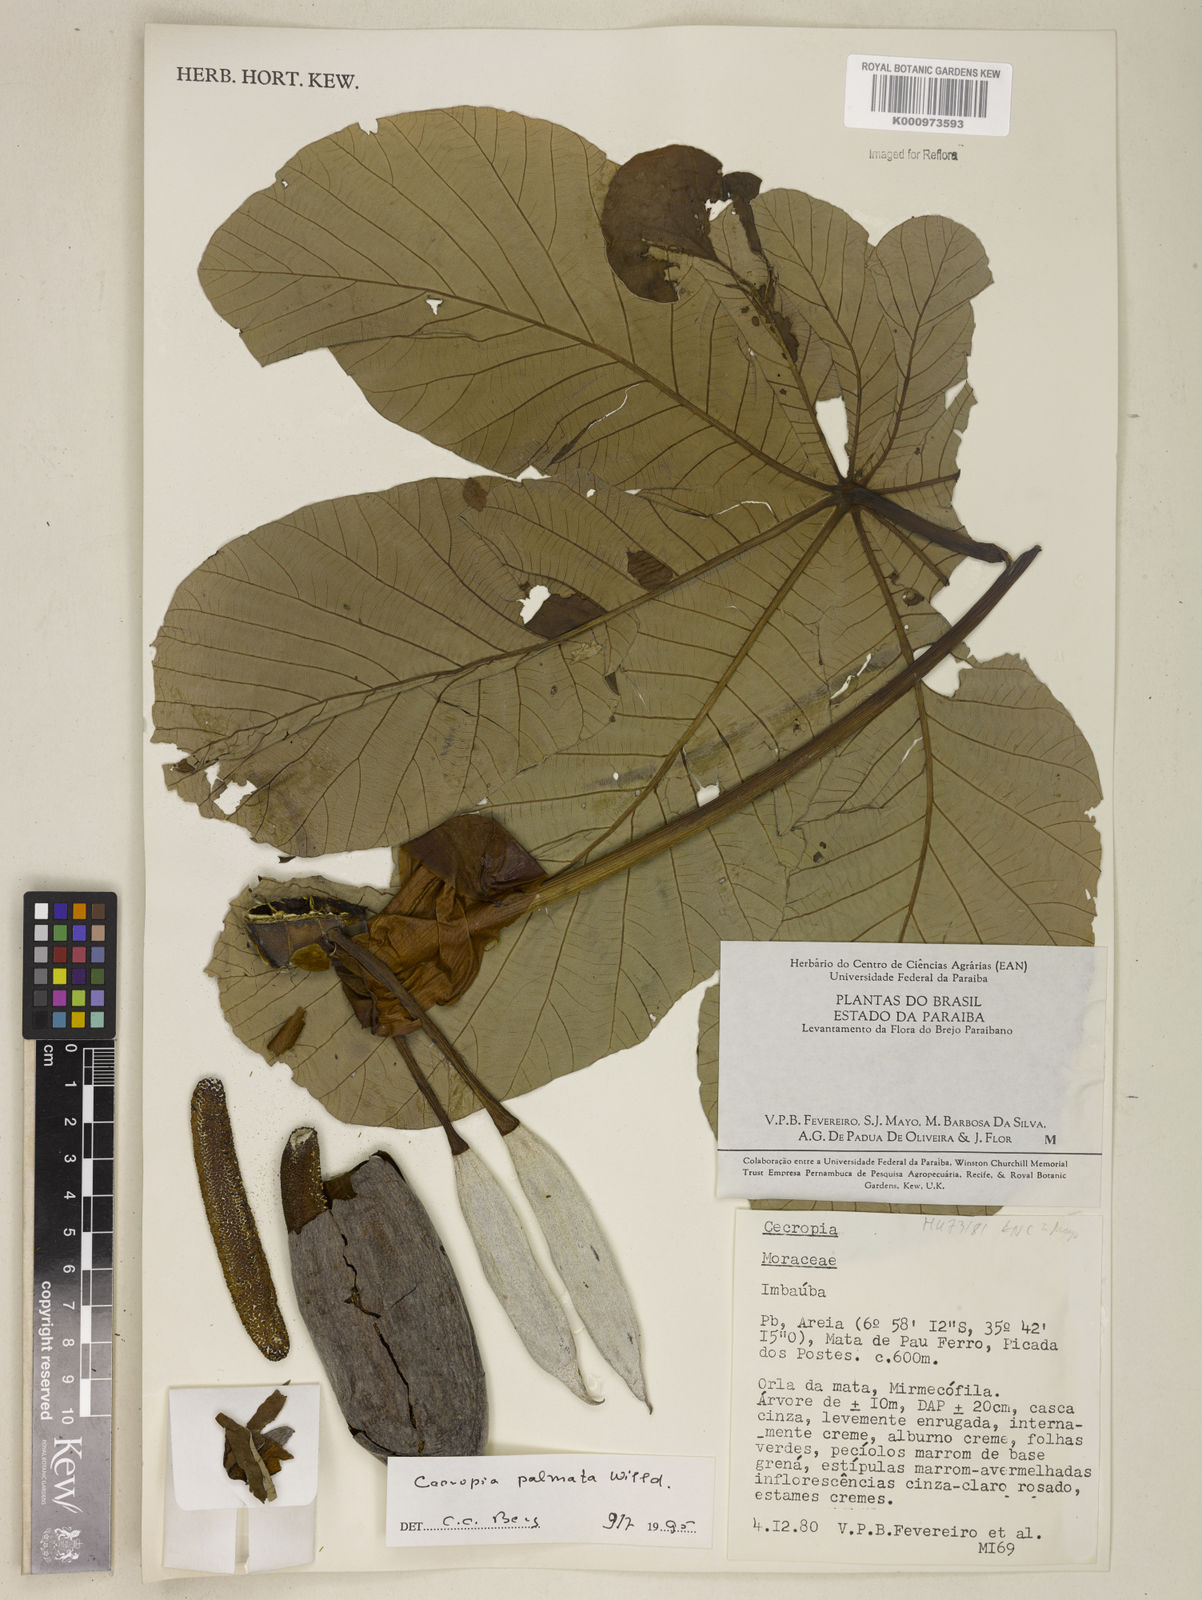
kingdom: Plantae
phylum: Tracheophyta
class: Magnoliopsida
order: Rosales
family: Urticaceae
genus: Cecropia
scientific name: Cecropia palmata
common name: Trumpet tree
